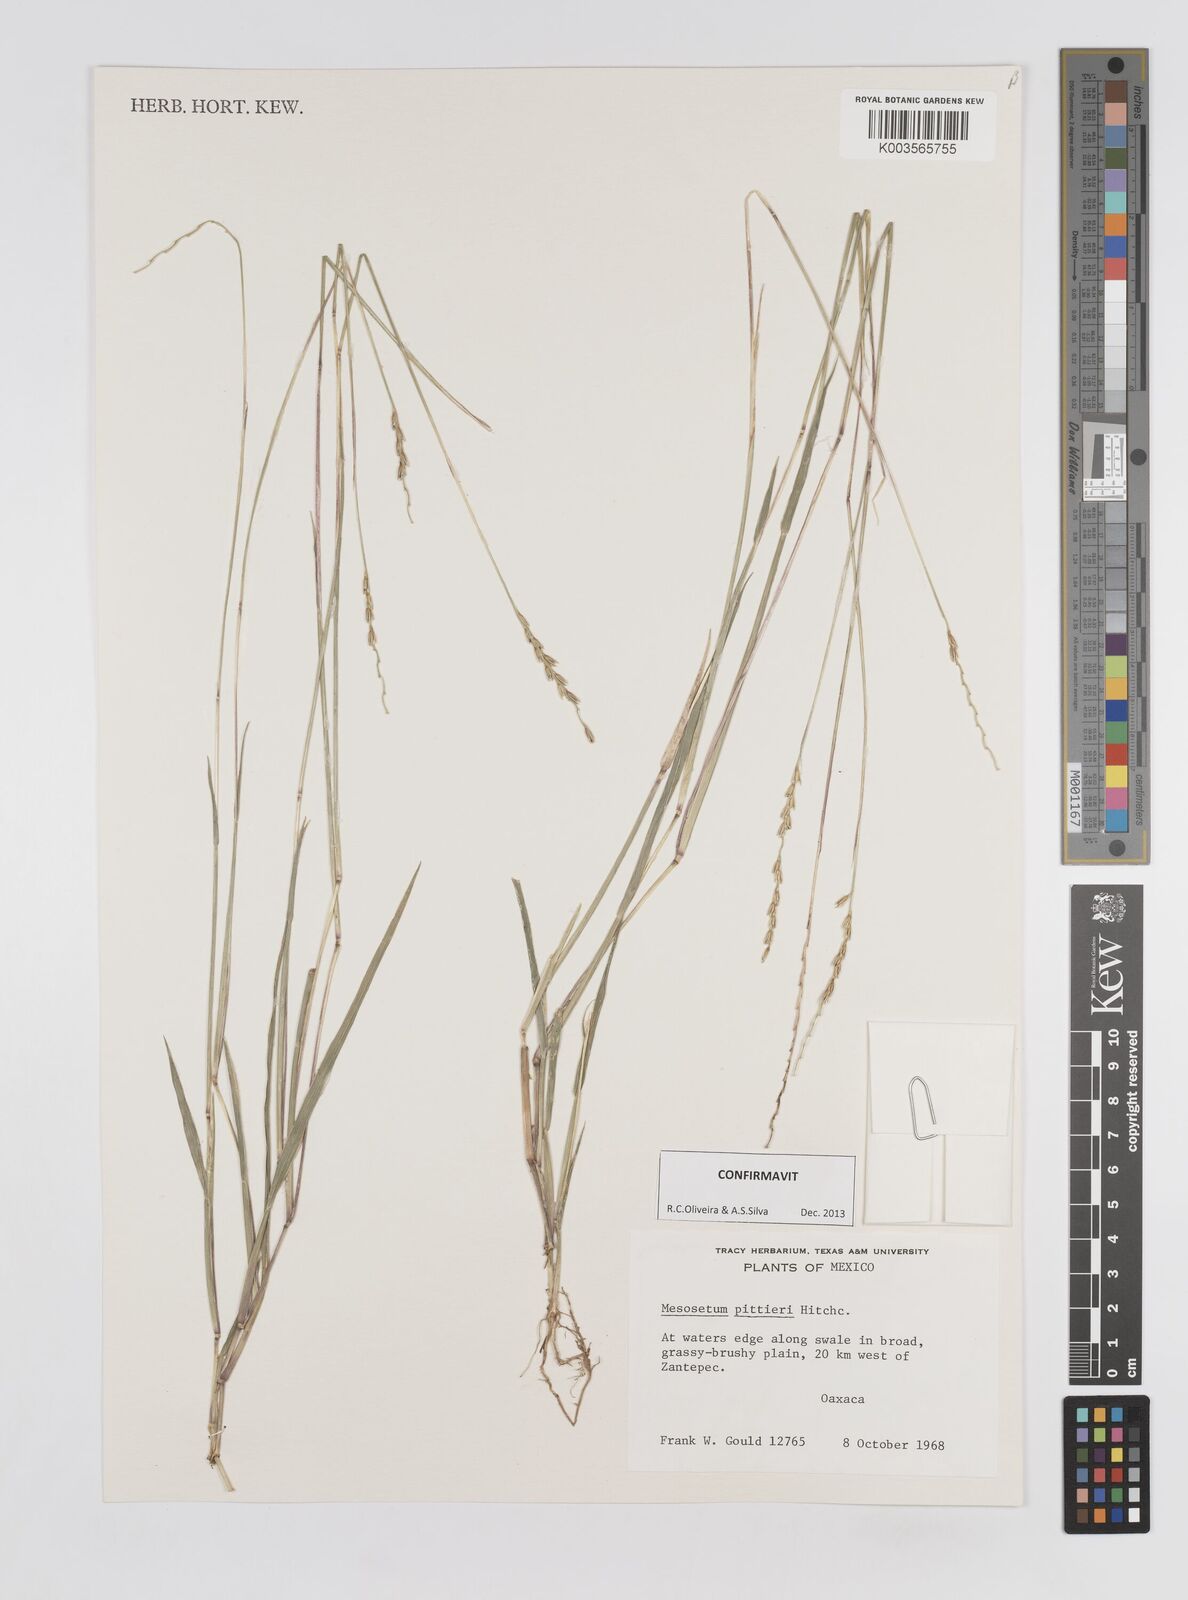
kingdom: Plantae
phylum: Tracheophyta
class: Liliopsida
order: Poales
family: Poaceae
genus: Mesosetum
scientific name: Mesosetum pittieri
